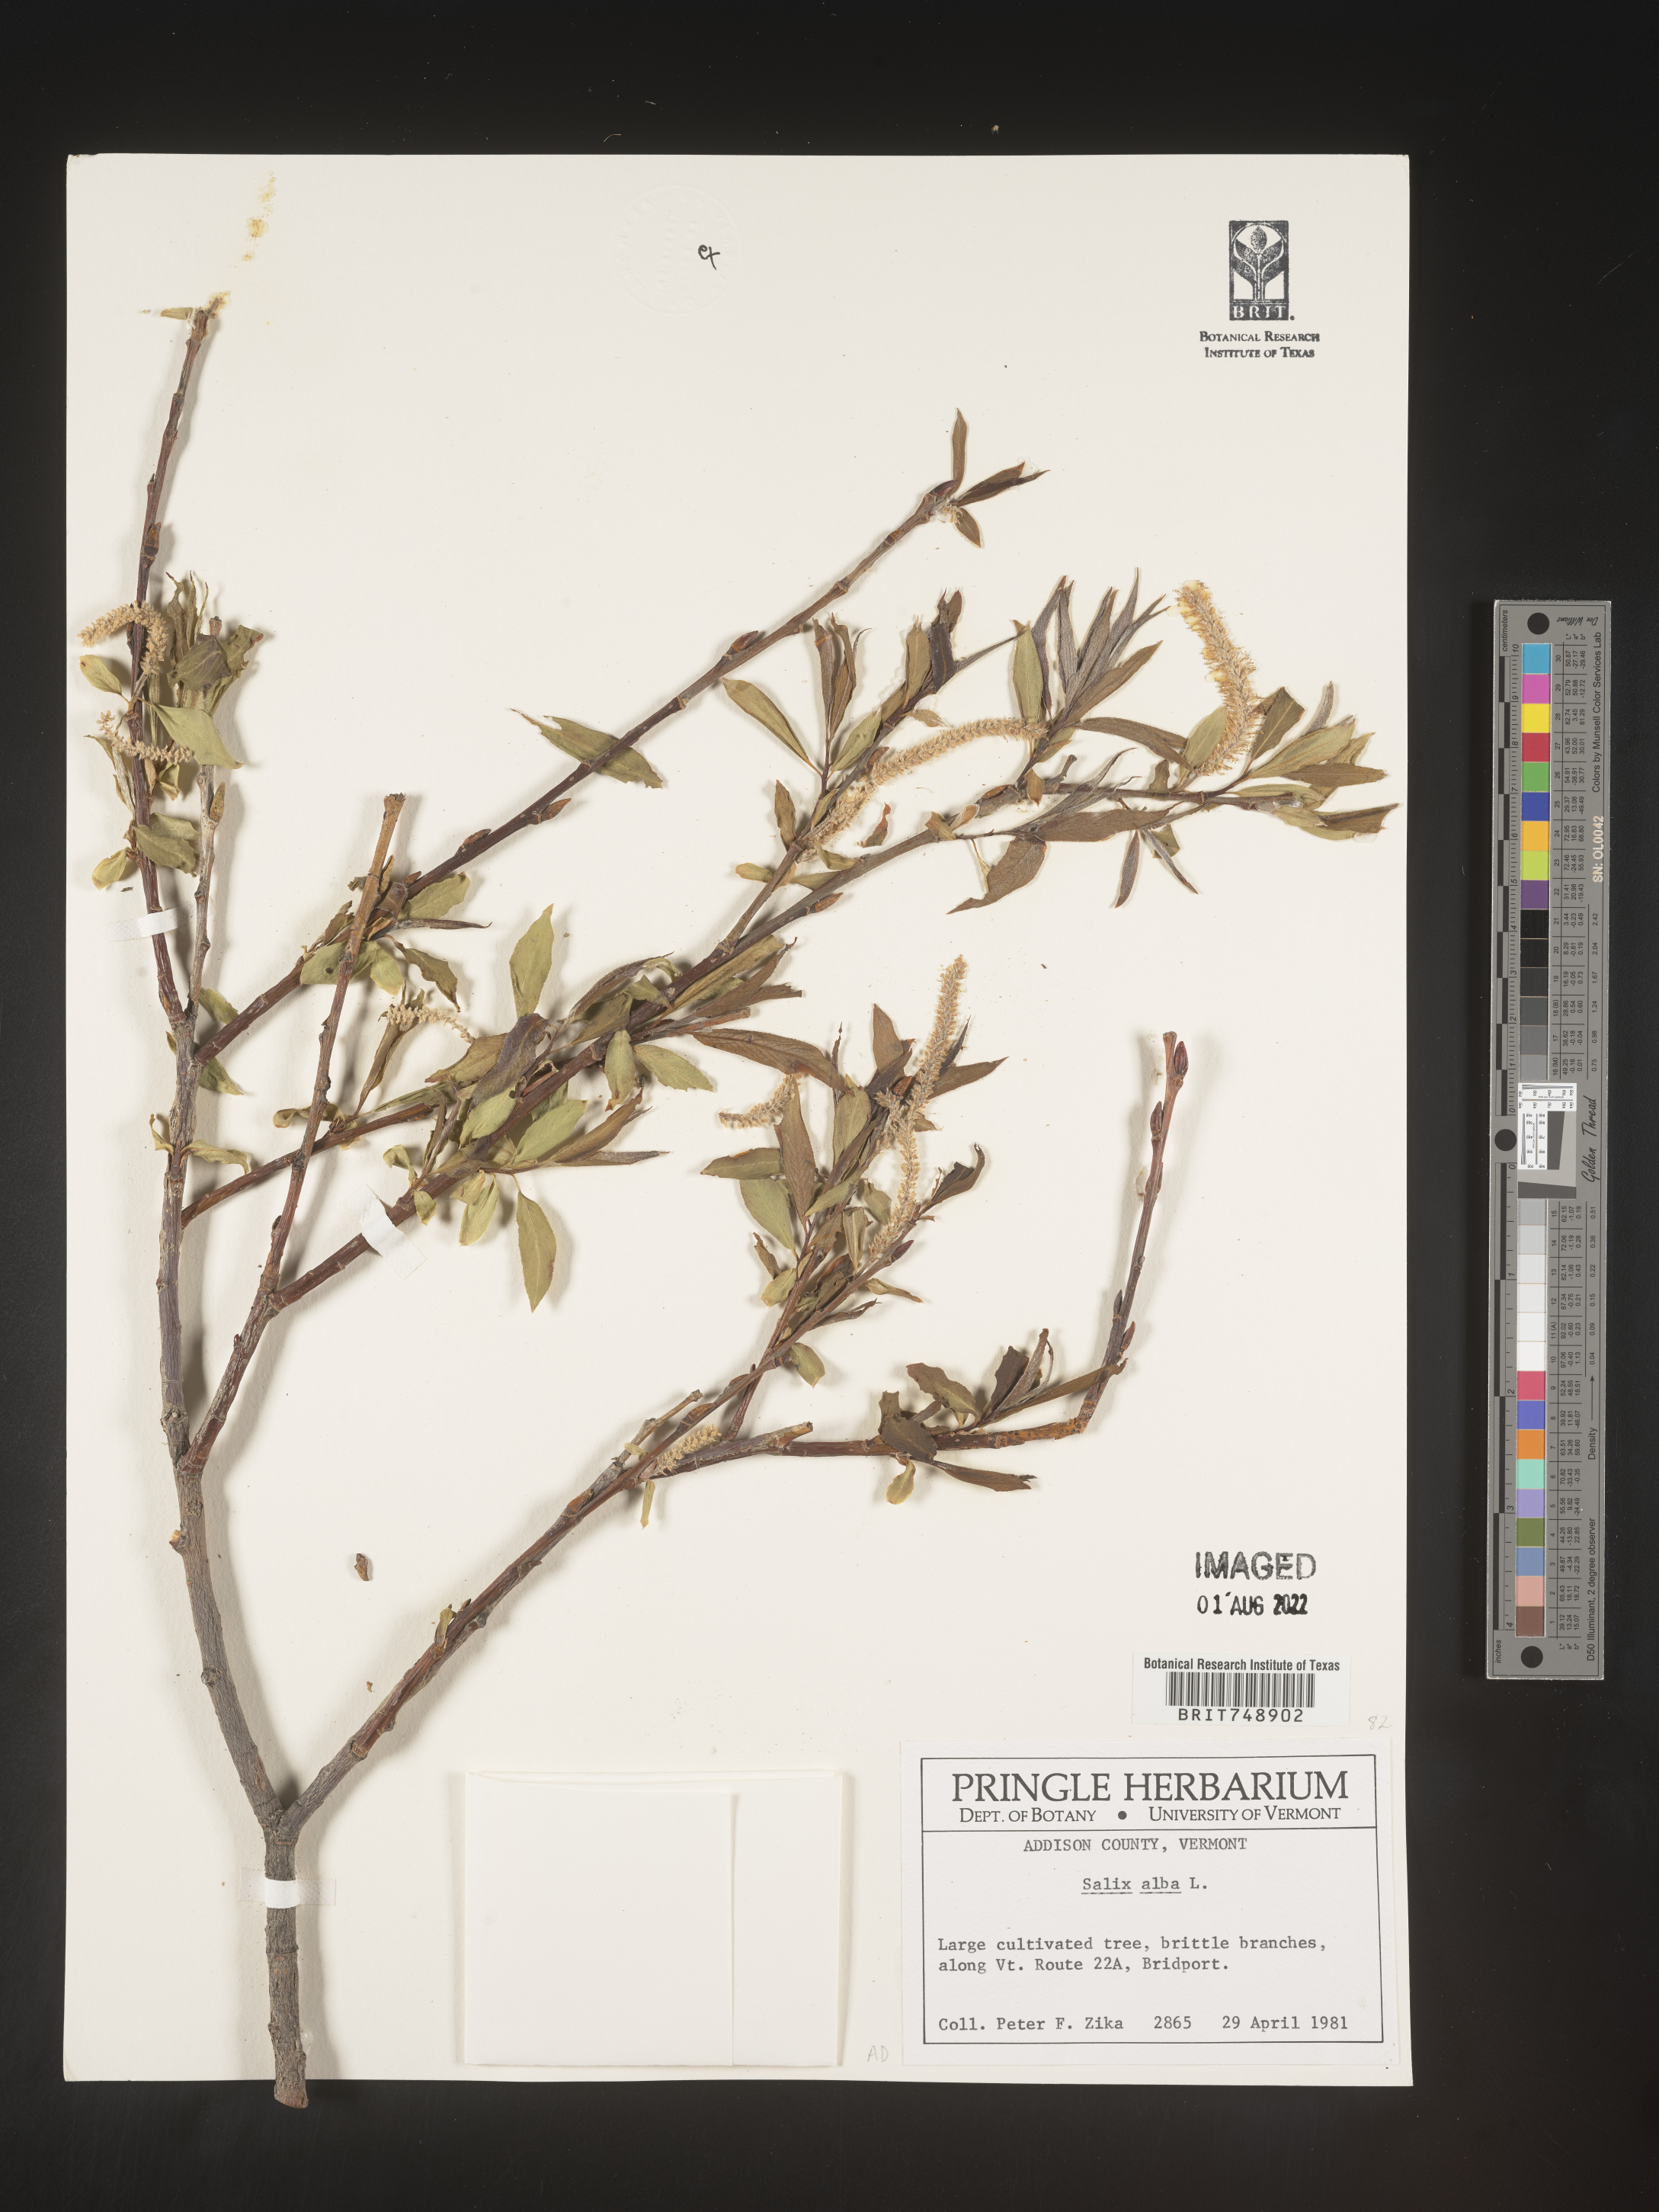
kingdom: Plantae
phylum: Tracheophyta
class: Magnoliopsida
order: Malpighiales
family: Salicaceae
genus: Salix
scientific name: Salix
